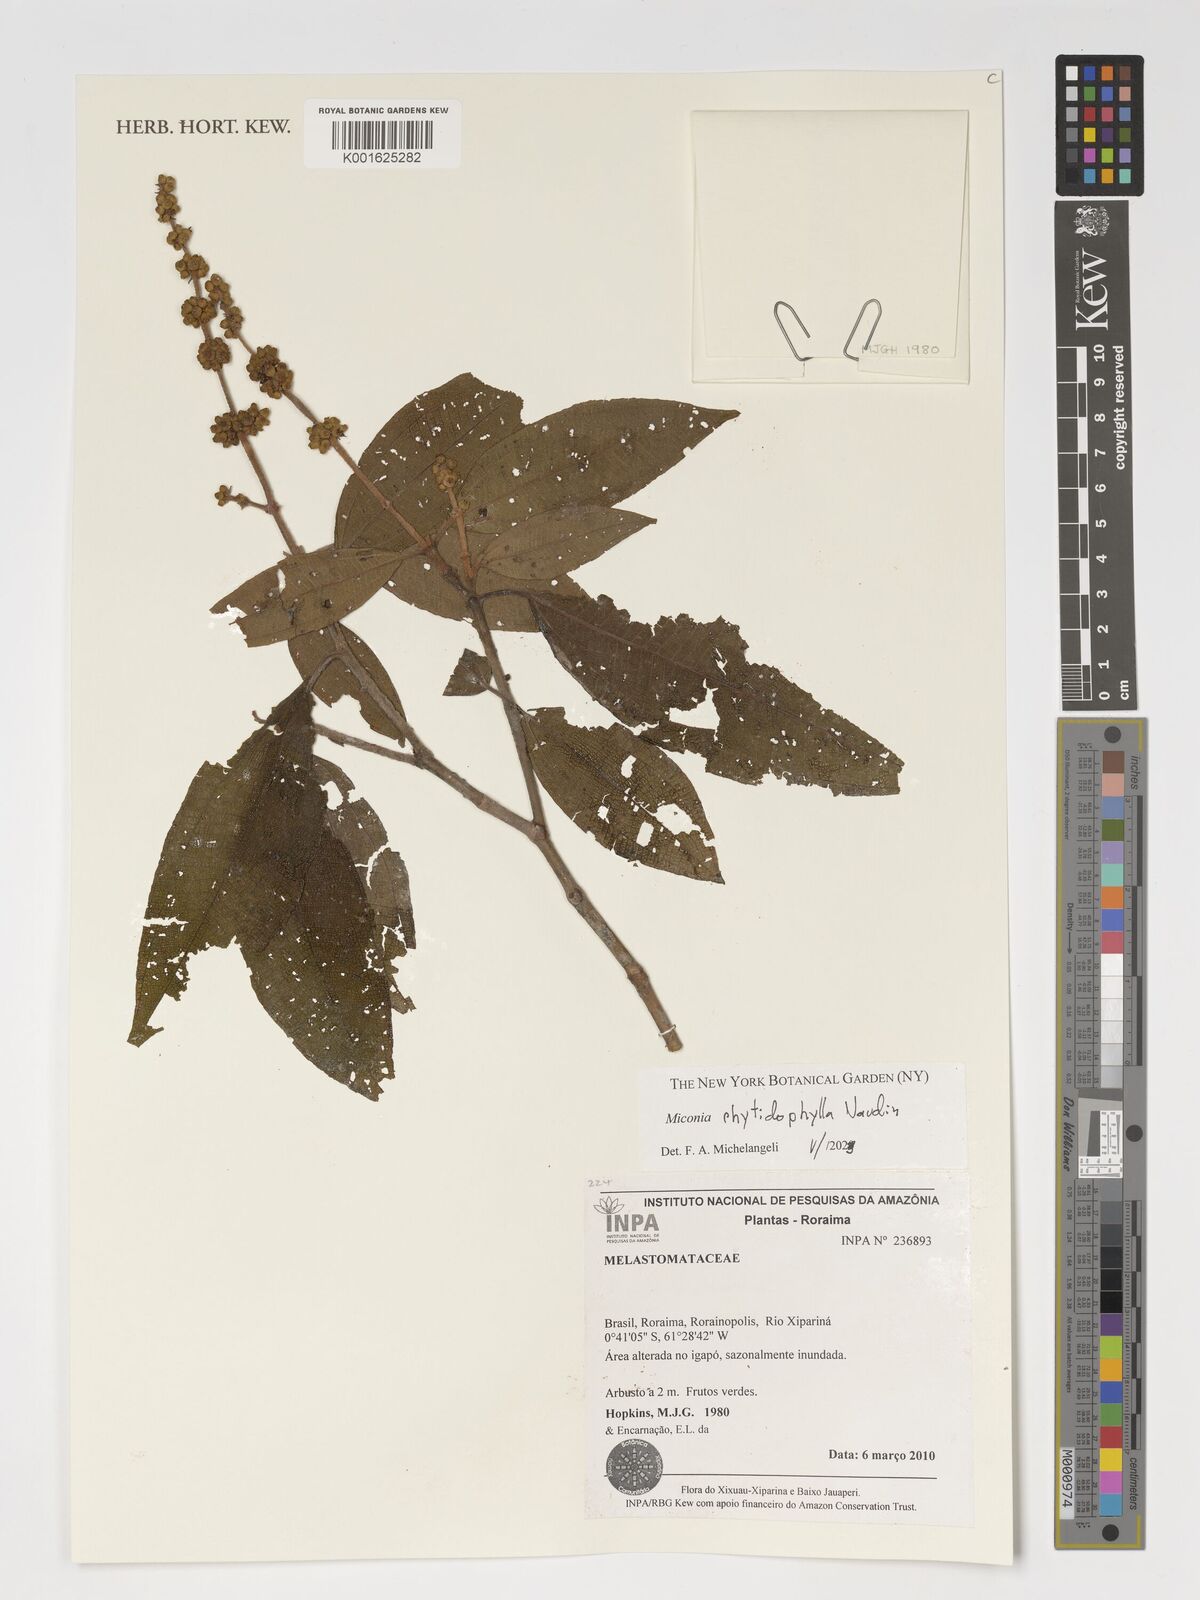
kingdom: Plantae
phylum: Tracheophyta
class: Magnoliopsida
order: Myrtales
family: Melastomataceae
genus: Miconia
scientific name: Miconia rhytidophylla
